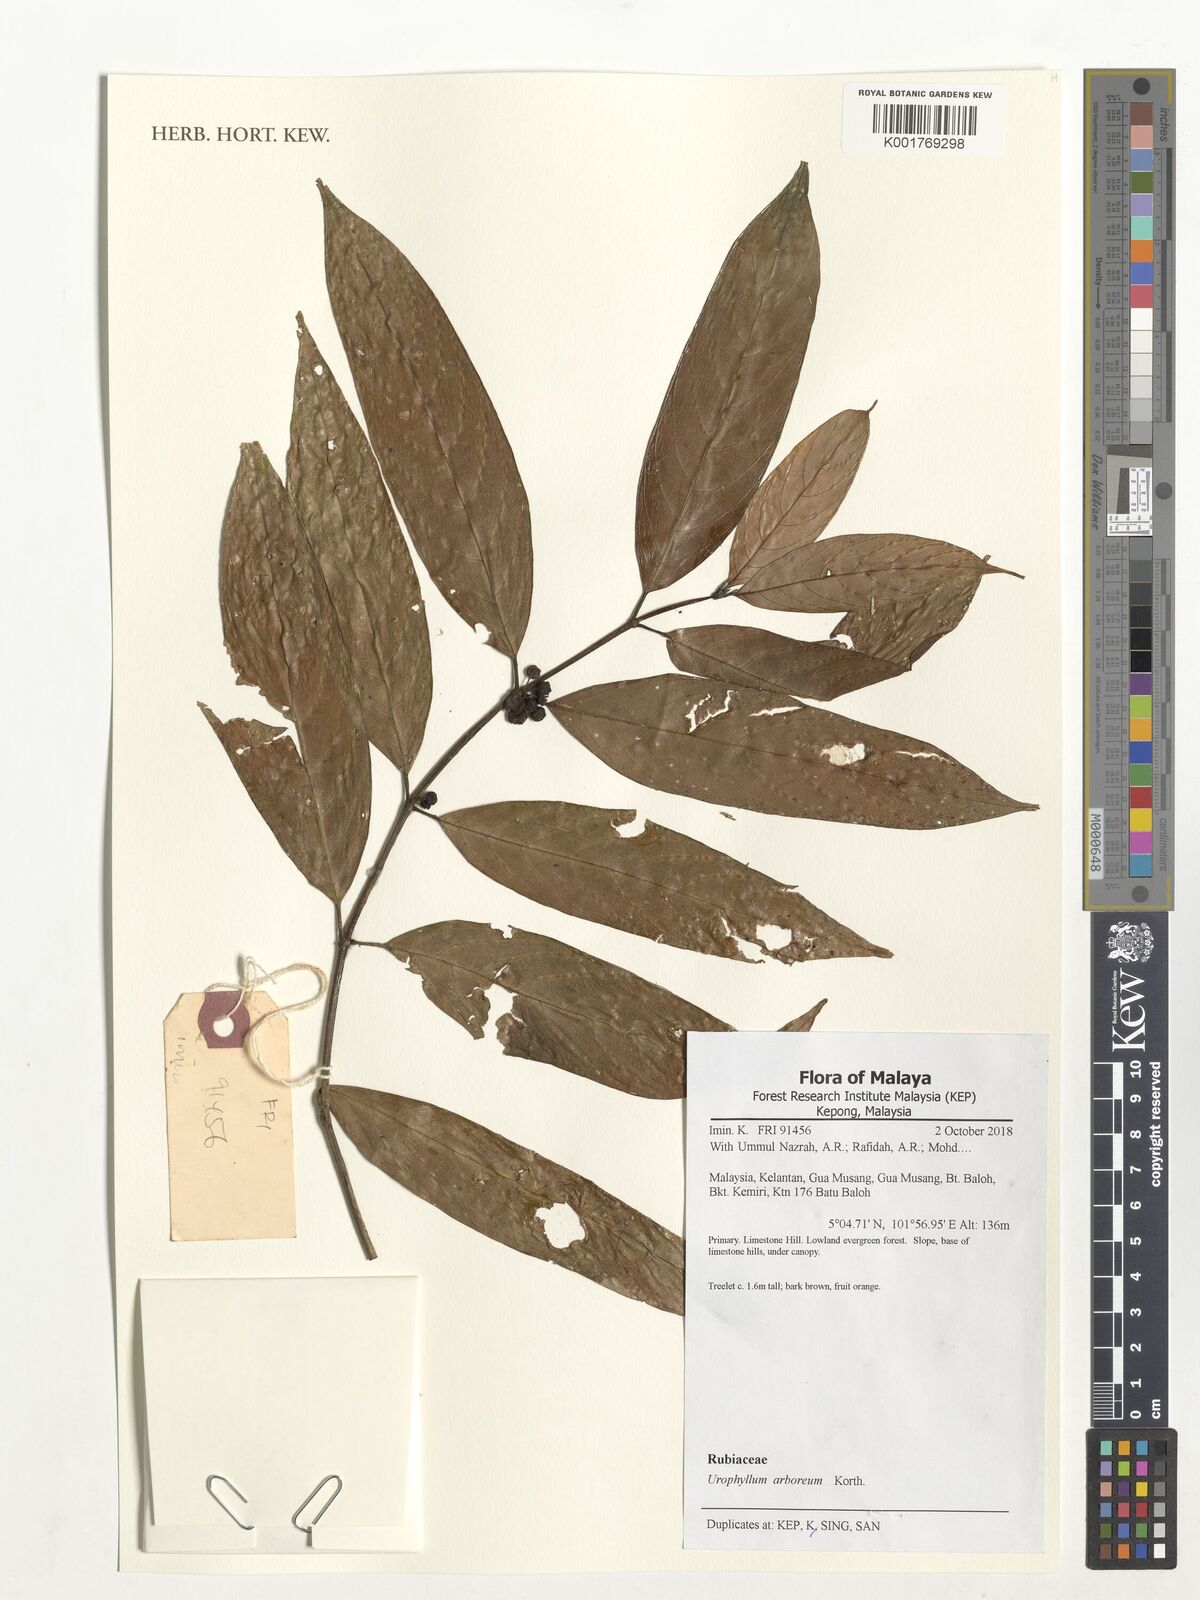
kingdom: Plantae
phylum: Tracheophyta
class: Magnoliopsida
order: Gentianales
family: Rubiaceae
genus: Urophyllum
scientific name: Urophyllum arboreum
